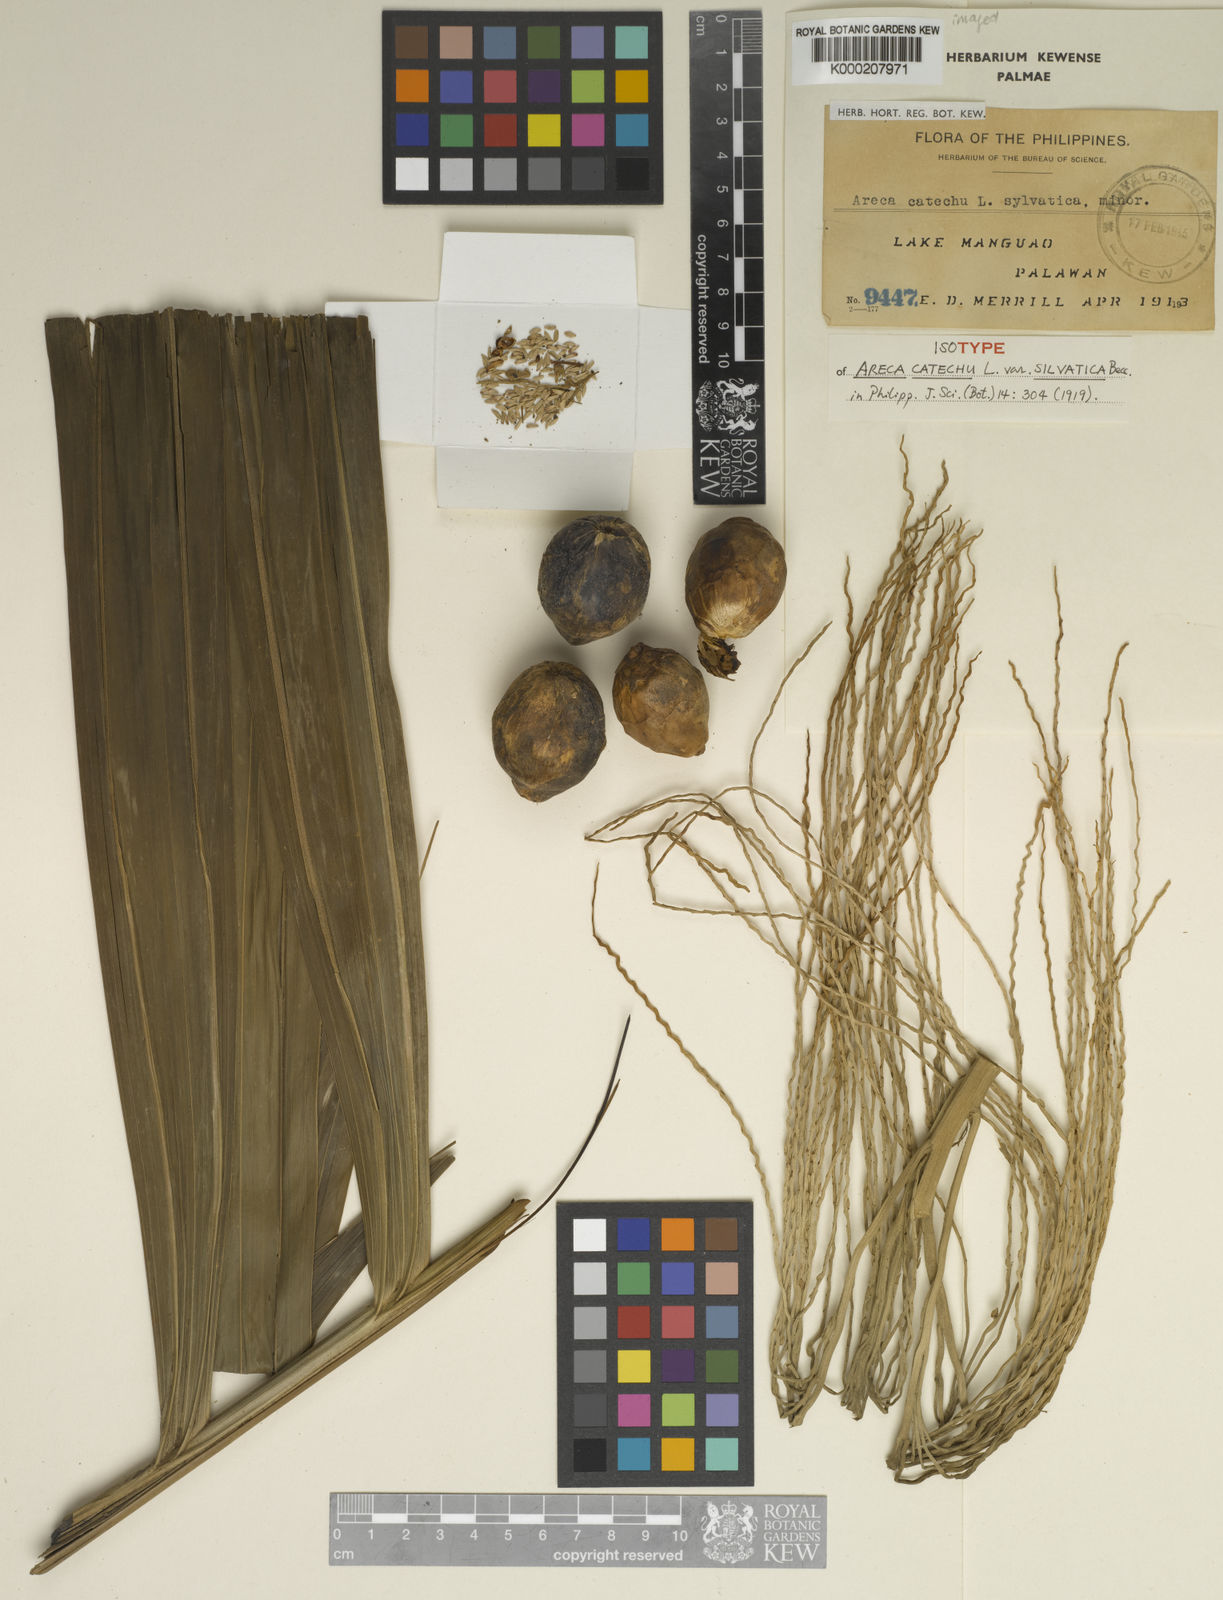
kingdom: Plantae
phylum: Tracheophyta
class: Liliopsida
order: Arecales
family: Arecaceae
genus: Areca
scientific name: Areca catechu
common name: Indian-nut
